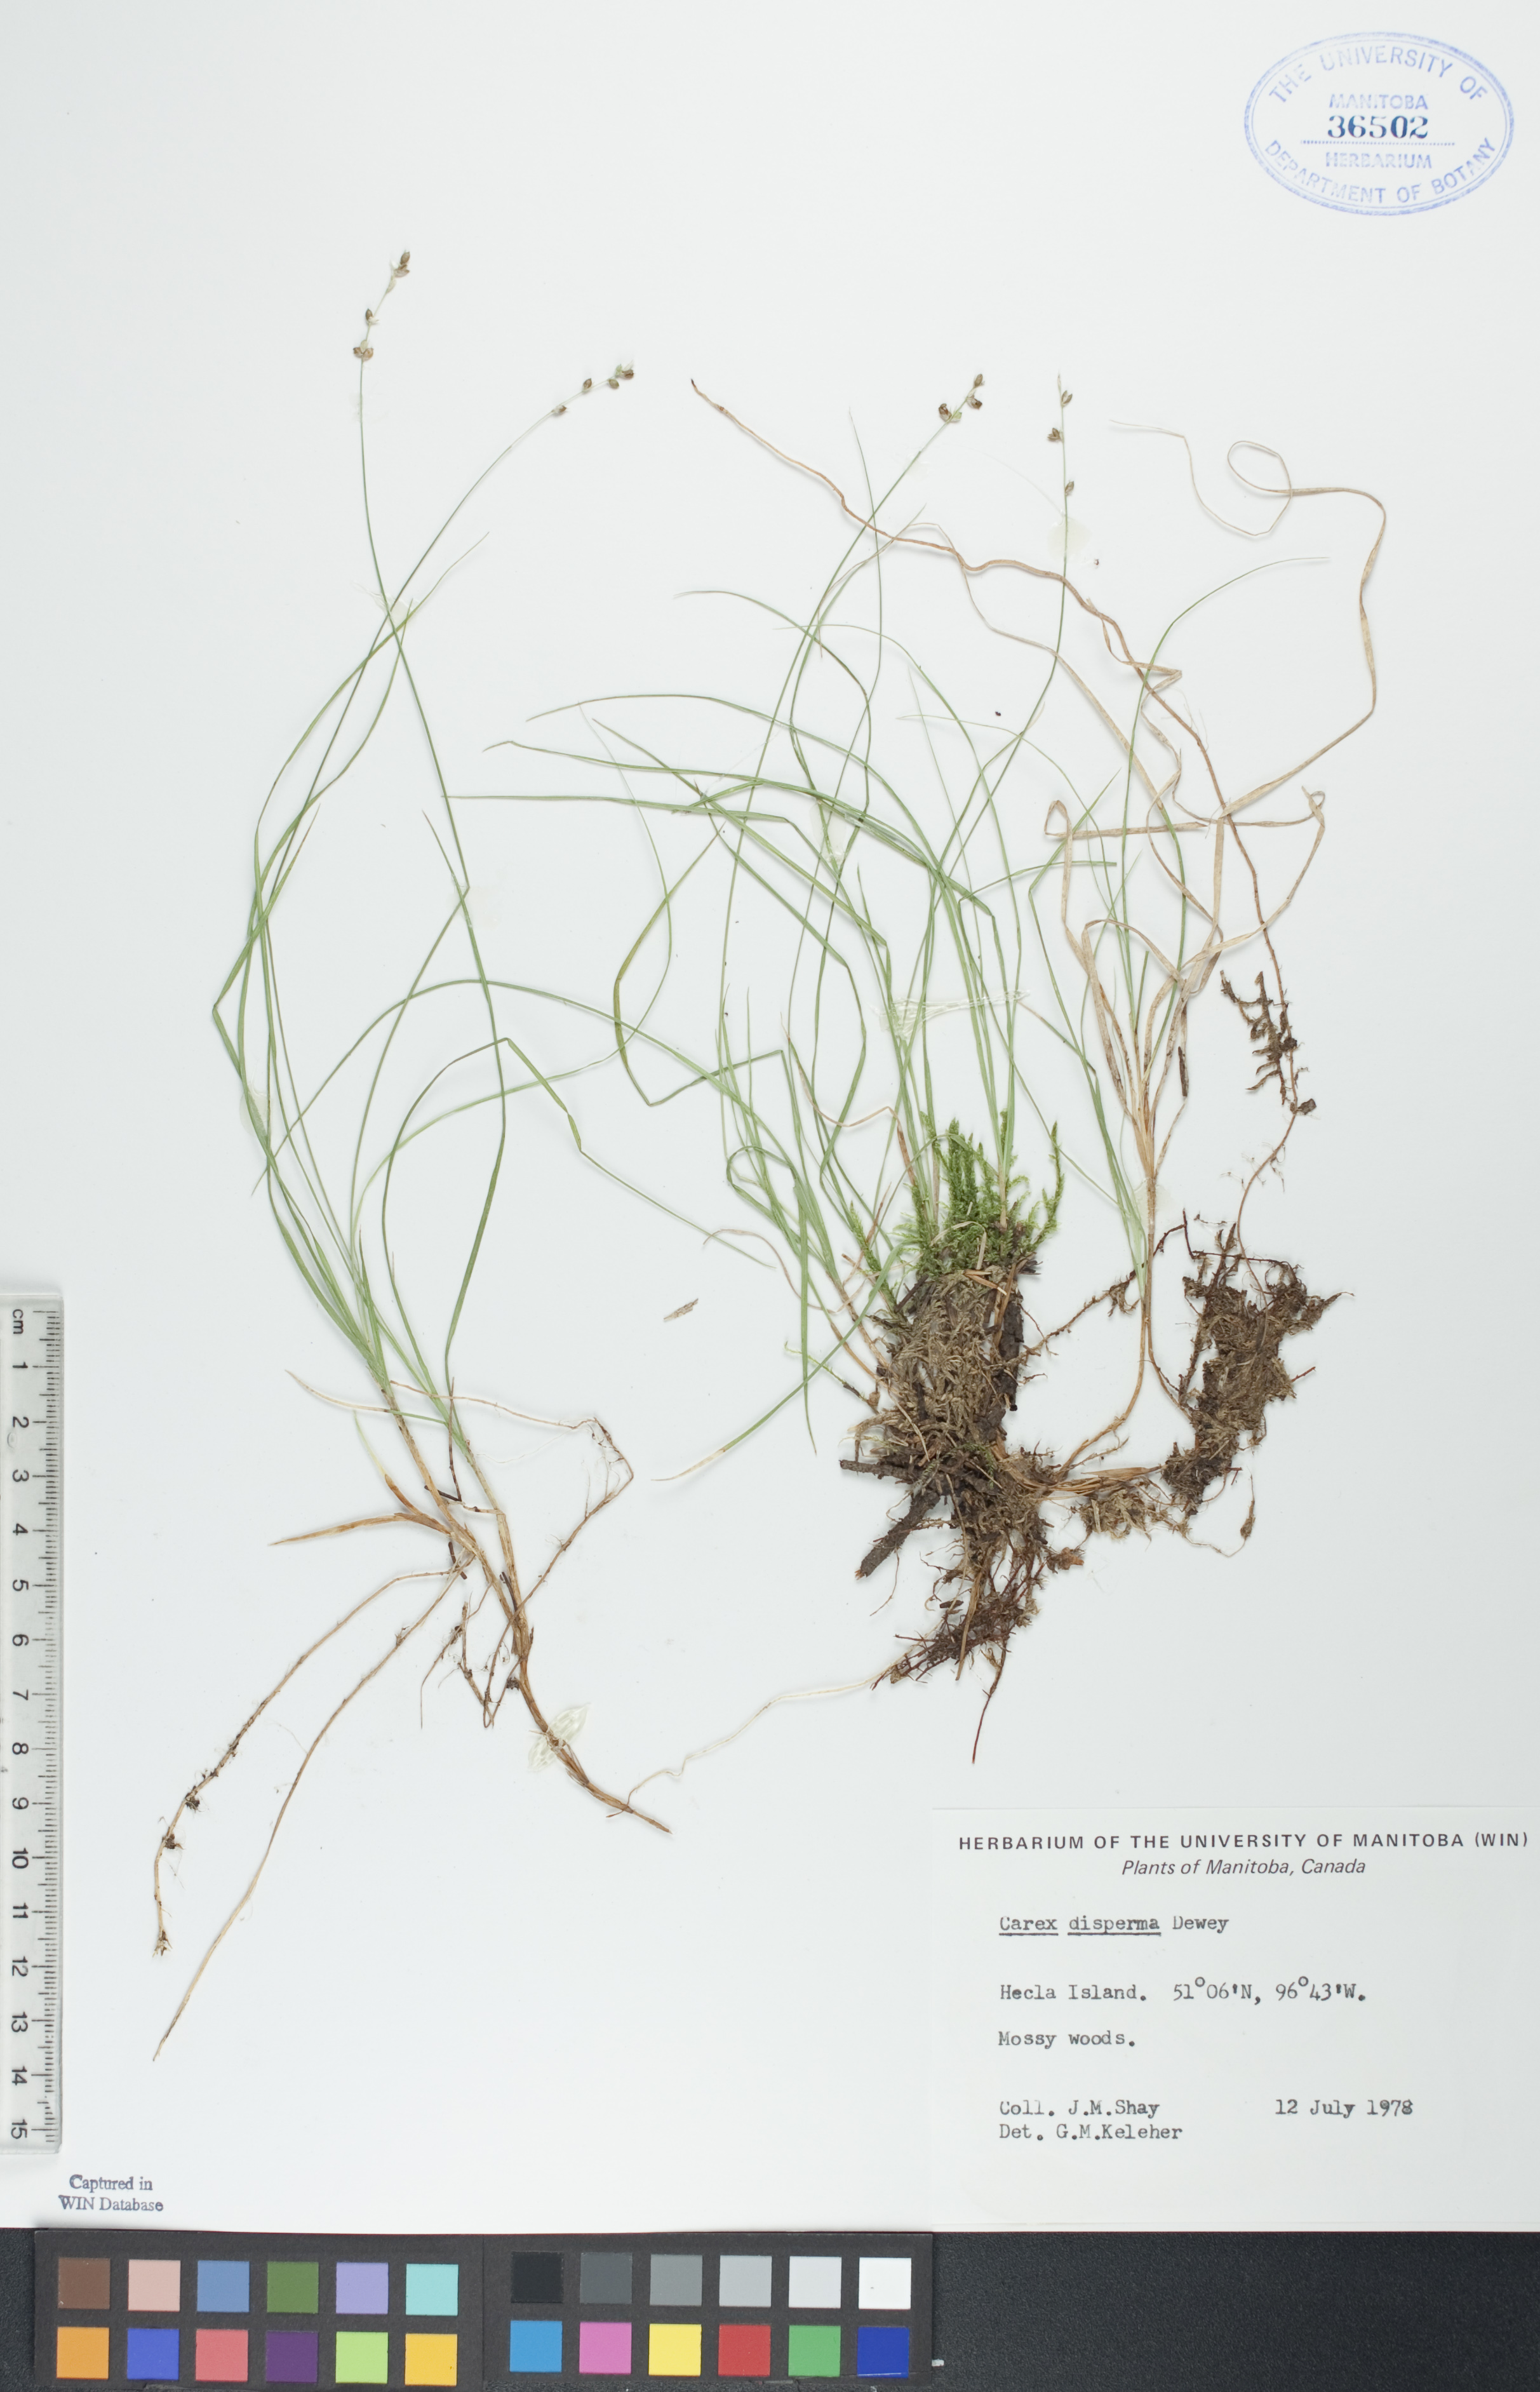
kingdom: Plantae
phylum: Tracheophyta
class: Liliopsida
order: Poales
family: Cyperaceae
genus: Carex
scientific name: Carex disperma
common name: Short-leaved sedge
